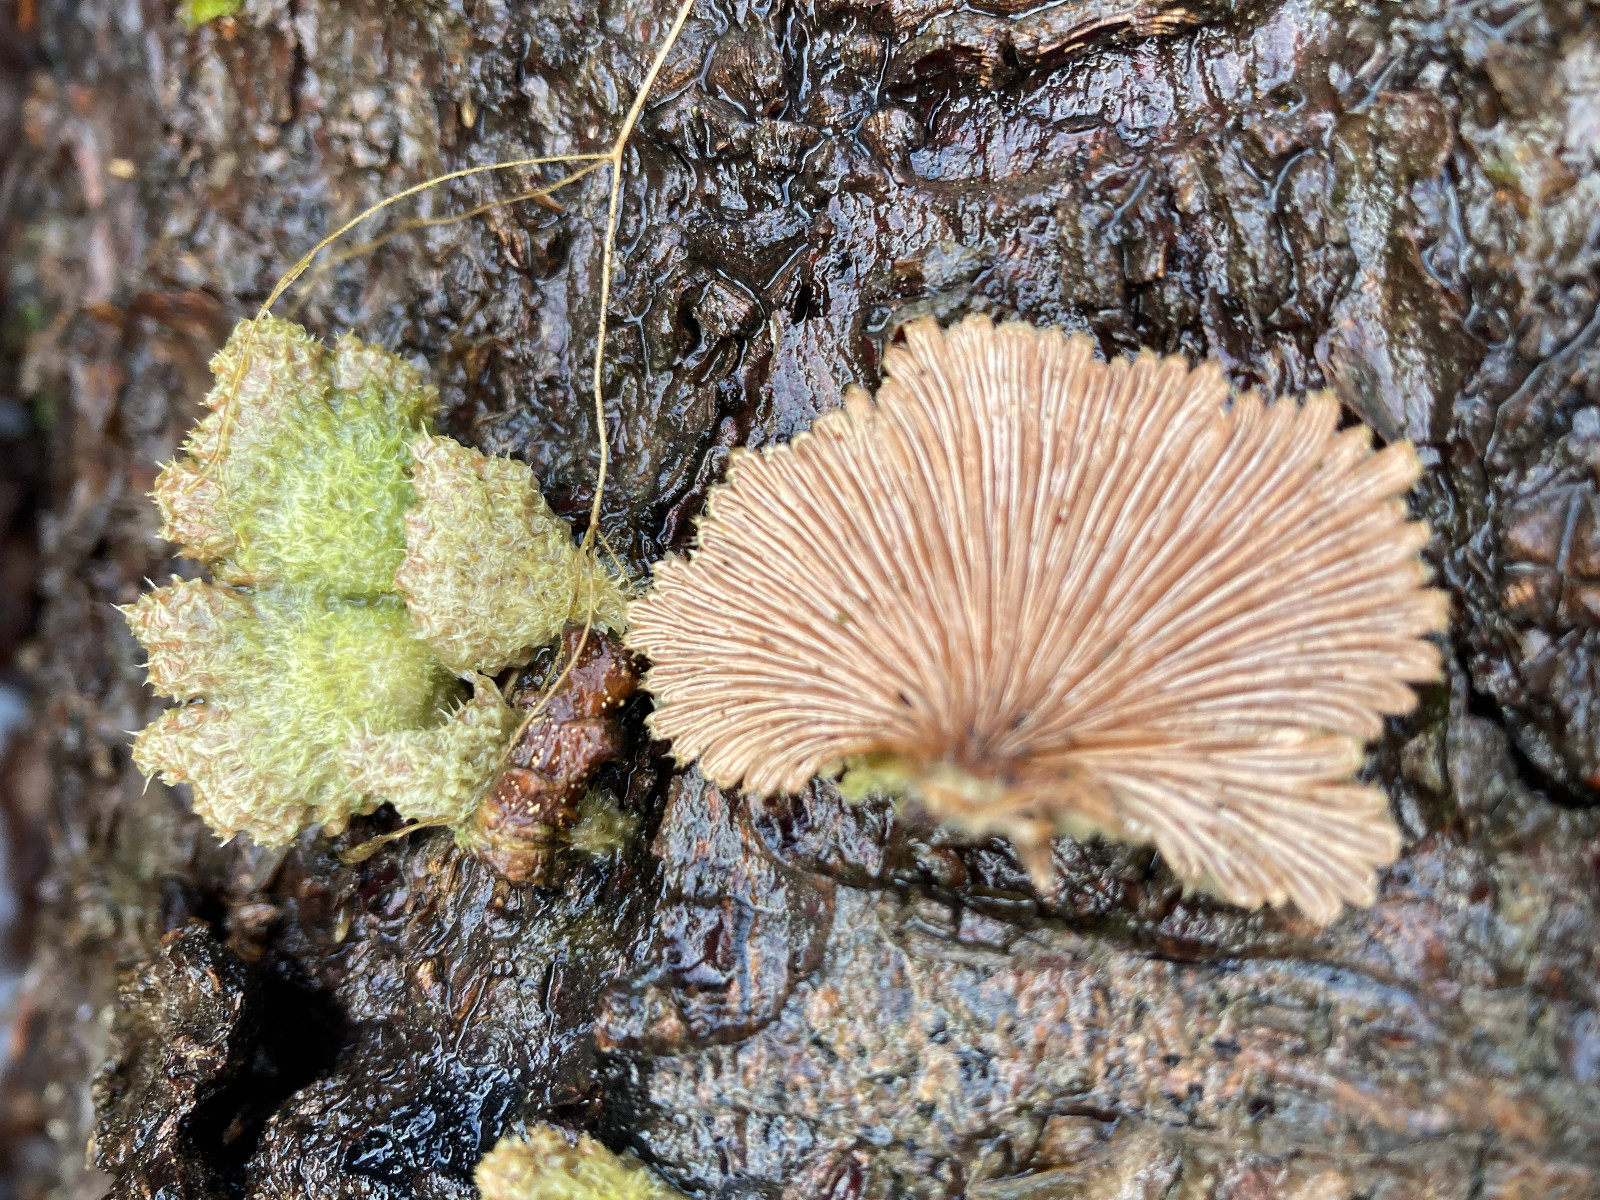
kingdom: Fungi
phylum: Basidiomycota
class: Agaricomycetes
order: Agaricales
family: Schizophyllaceae
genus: Schizophyllum
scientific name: Schizophyllum commune
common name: kløvblad
